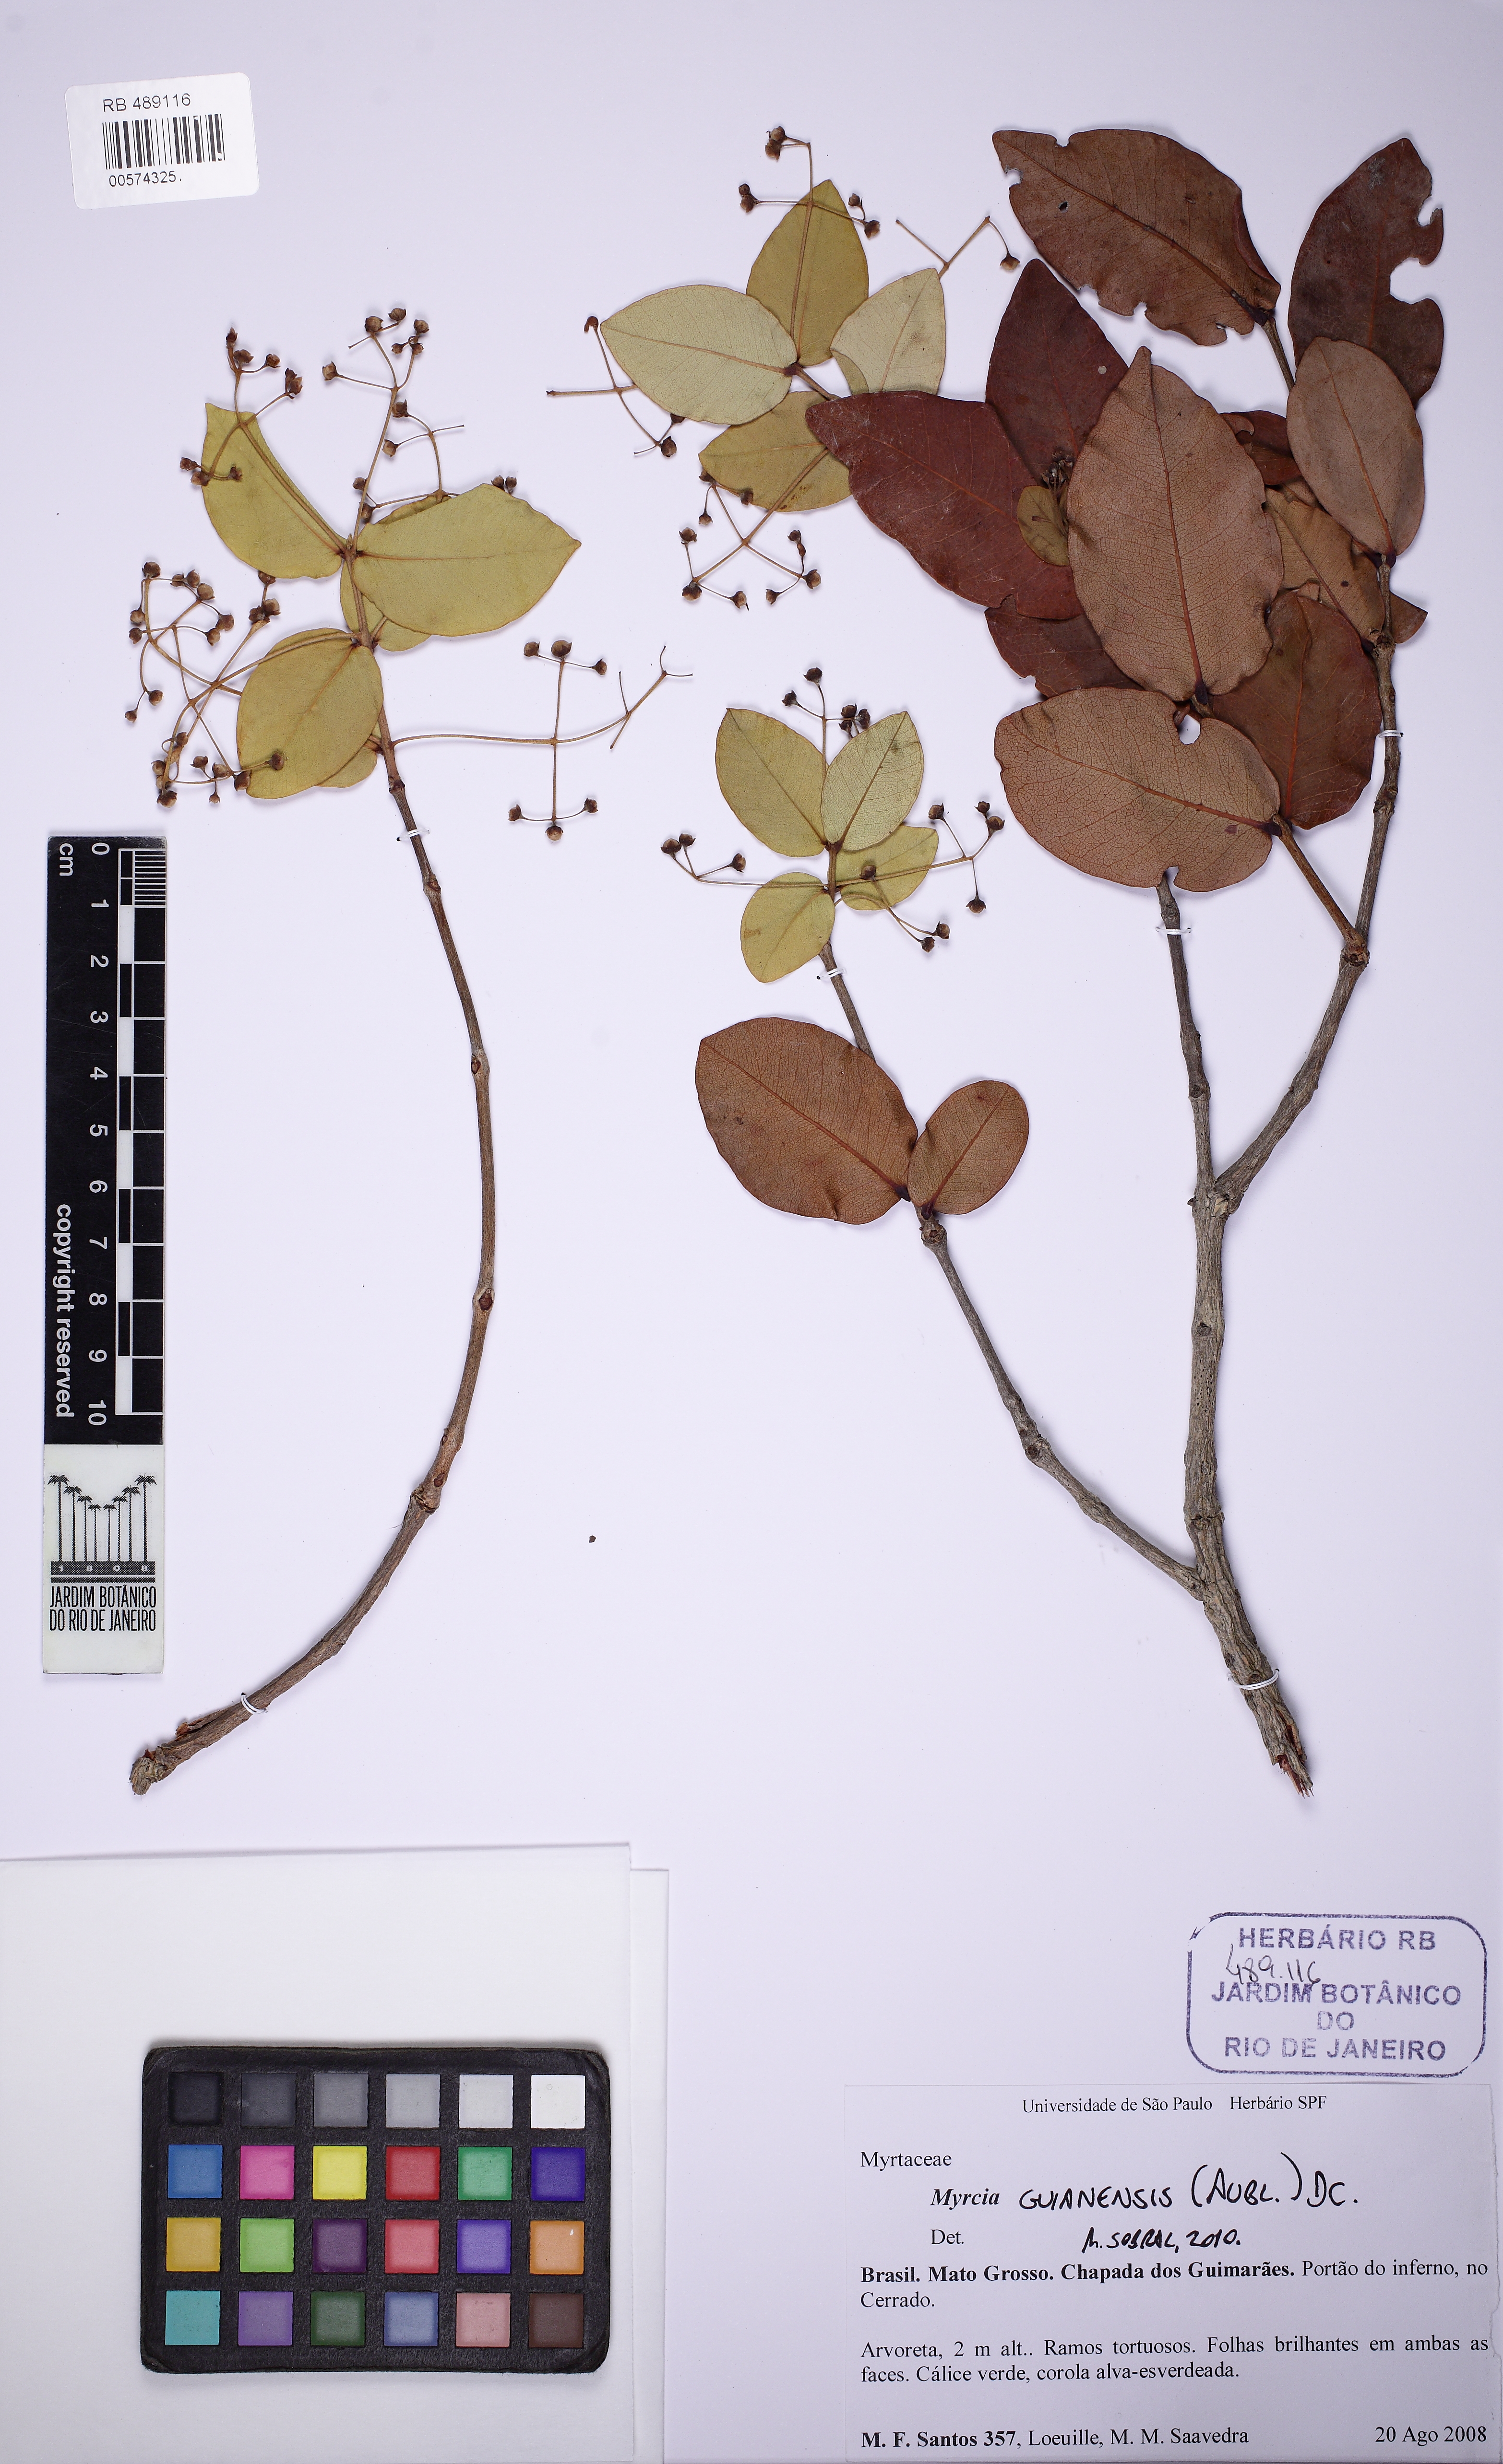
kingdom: Plantae
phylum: Tracheophyta
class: Magnoliopsida
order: Myrtales
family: Myrtaceae
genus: Myrcia
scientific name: Myrcia
